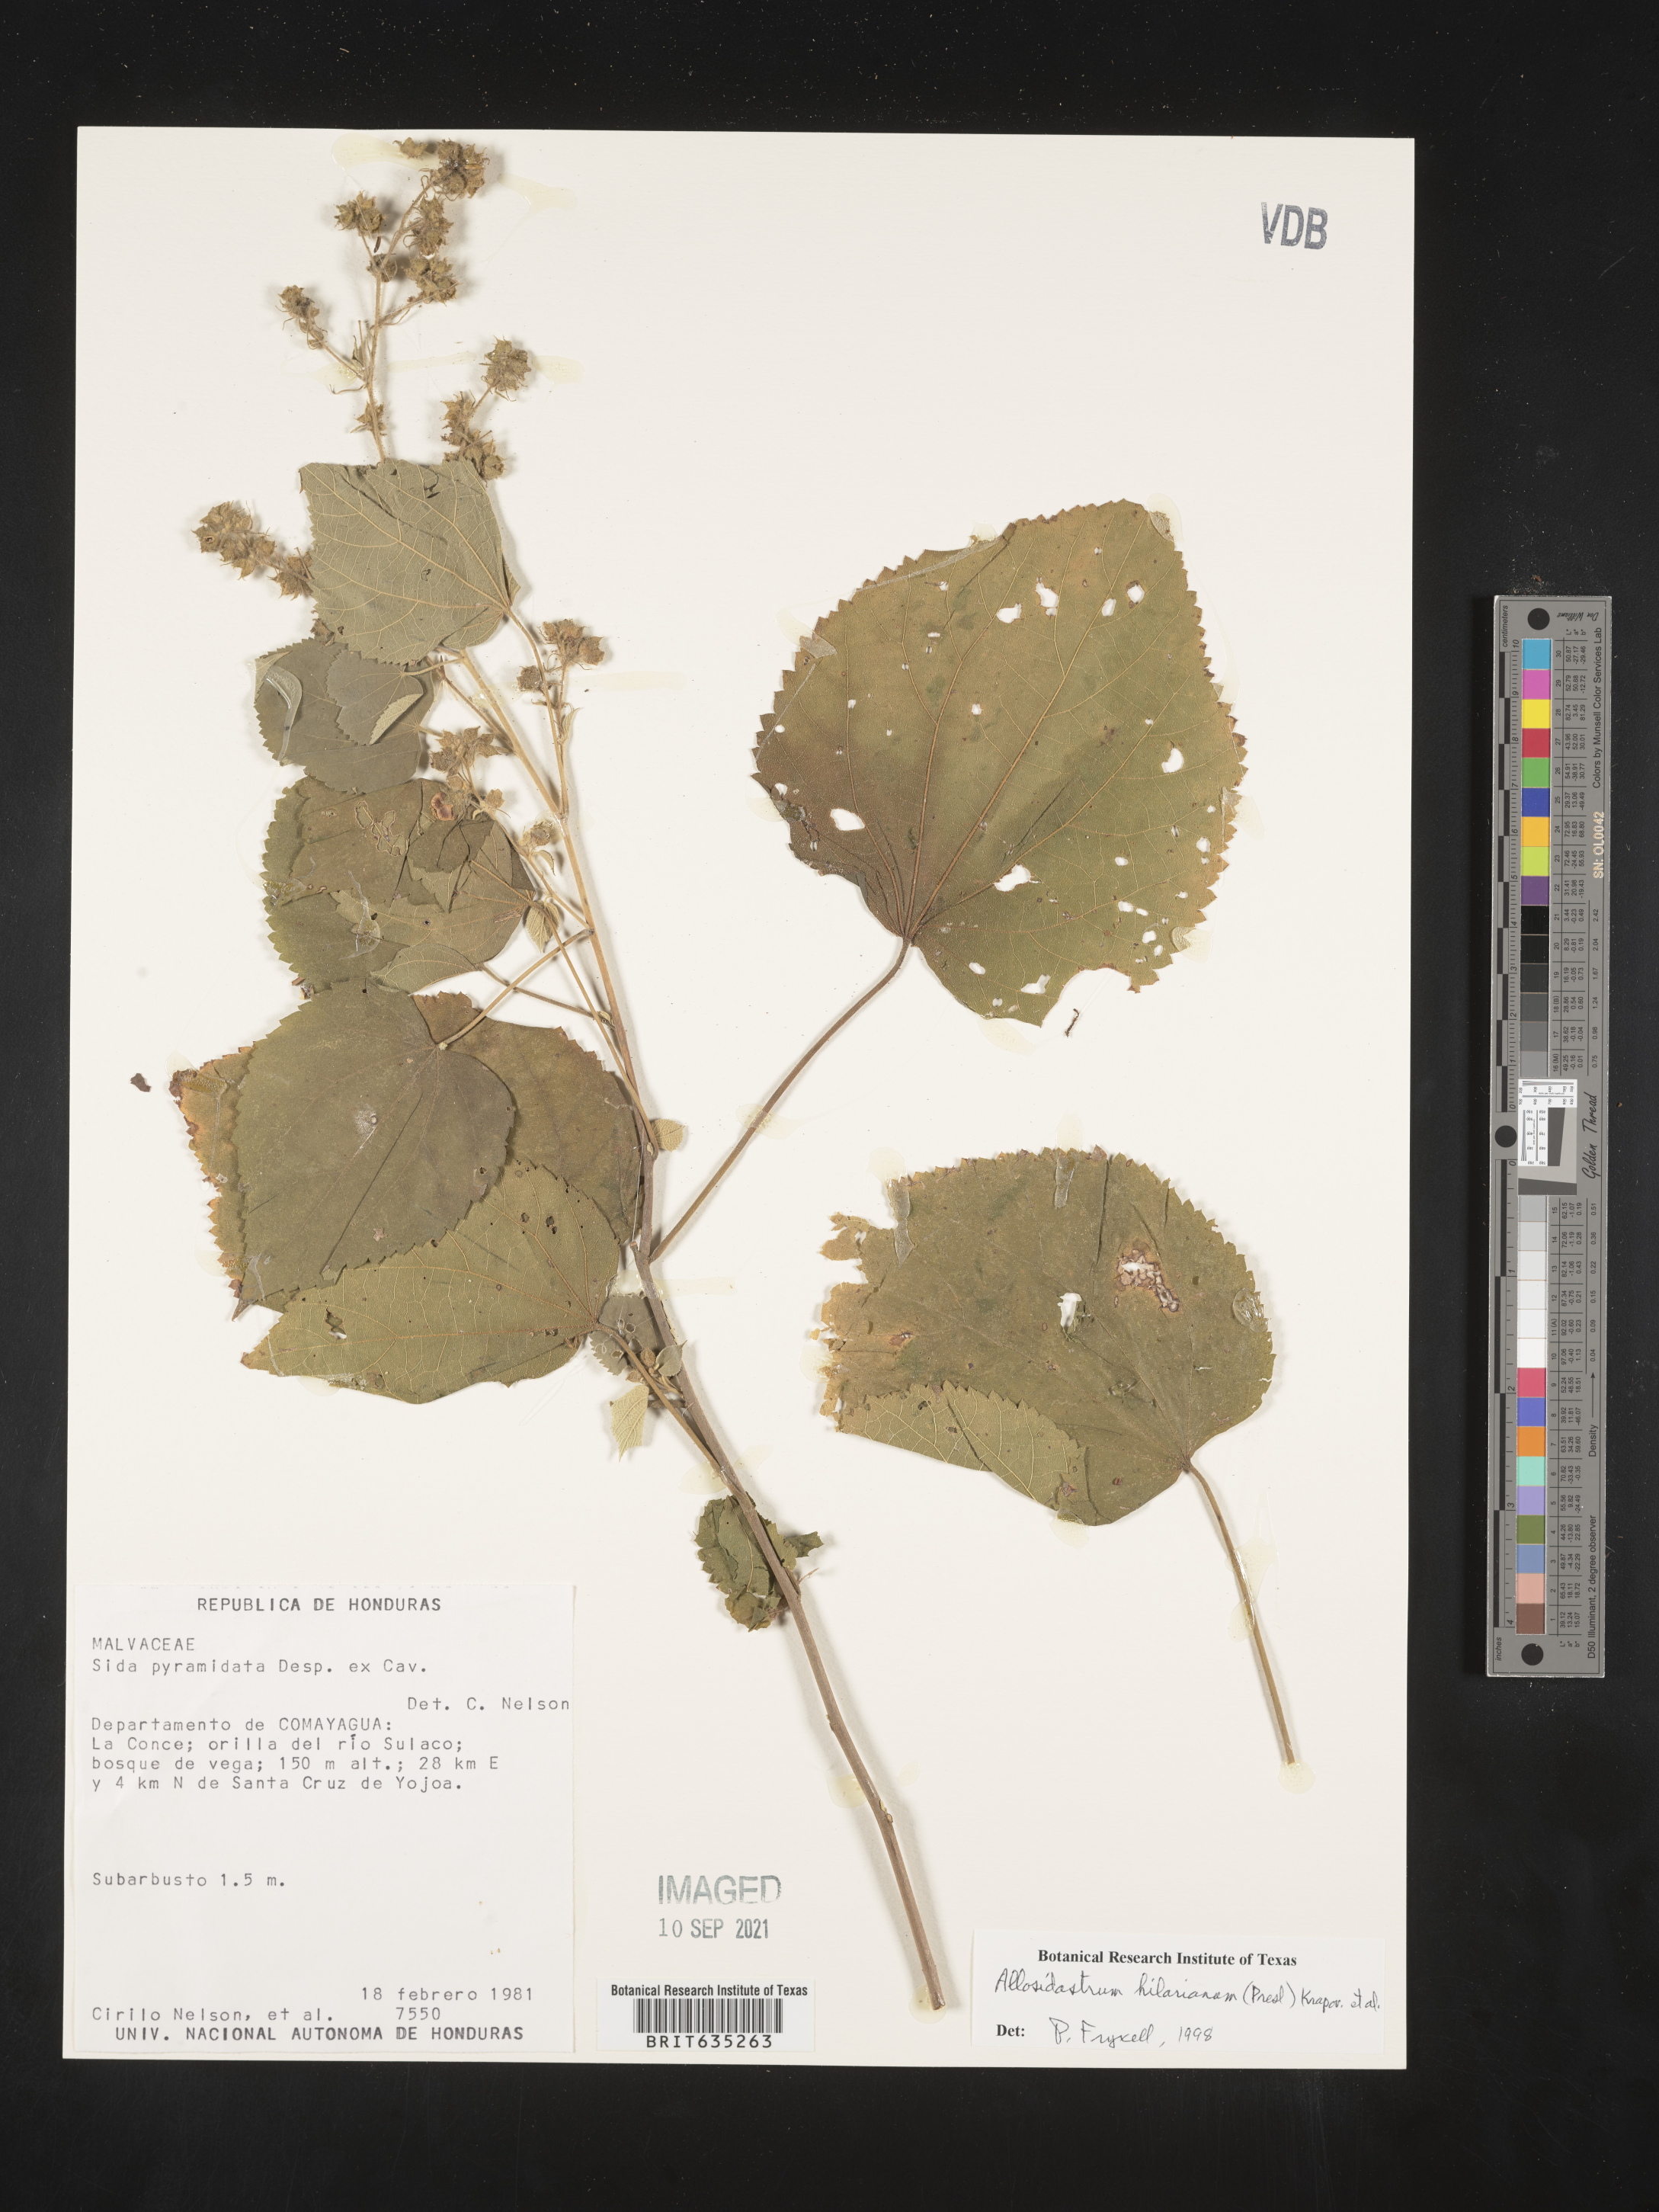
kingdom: Plantae
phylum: Tracheophyta
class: Magnoliopsida
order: Malvales
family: Malvaceae
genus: Allosidastrum
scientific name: Allosidastrum
